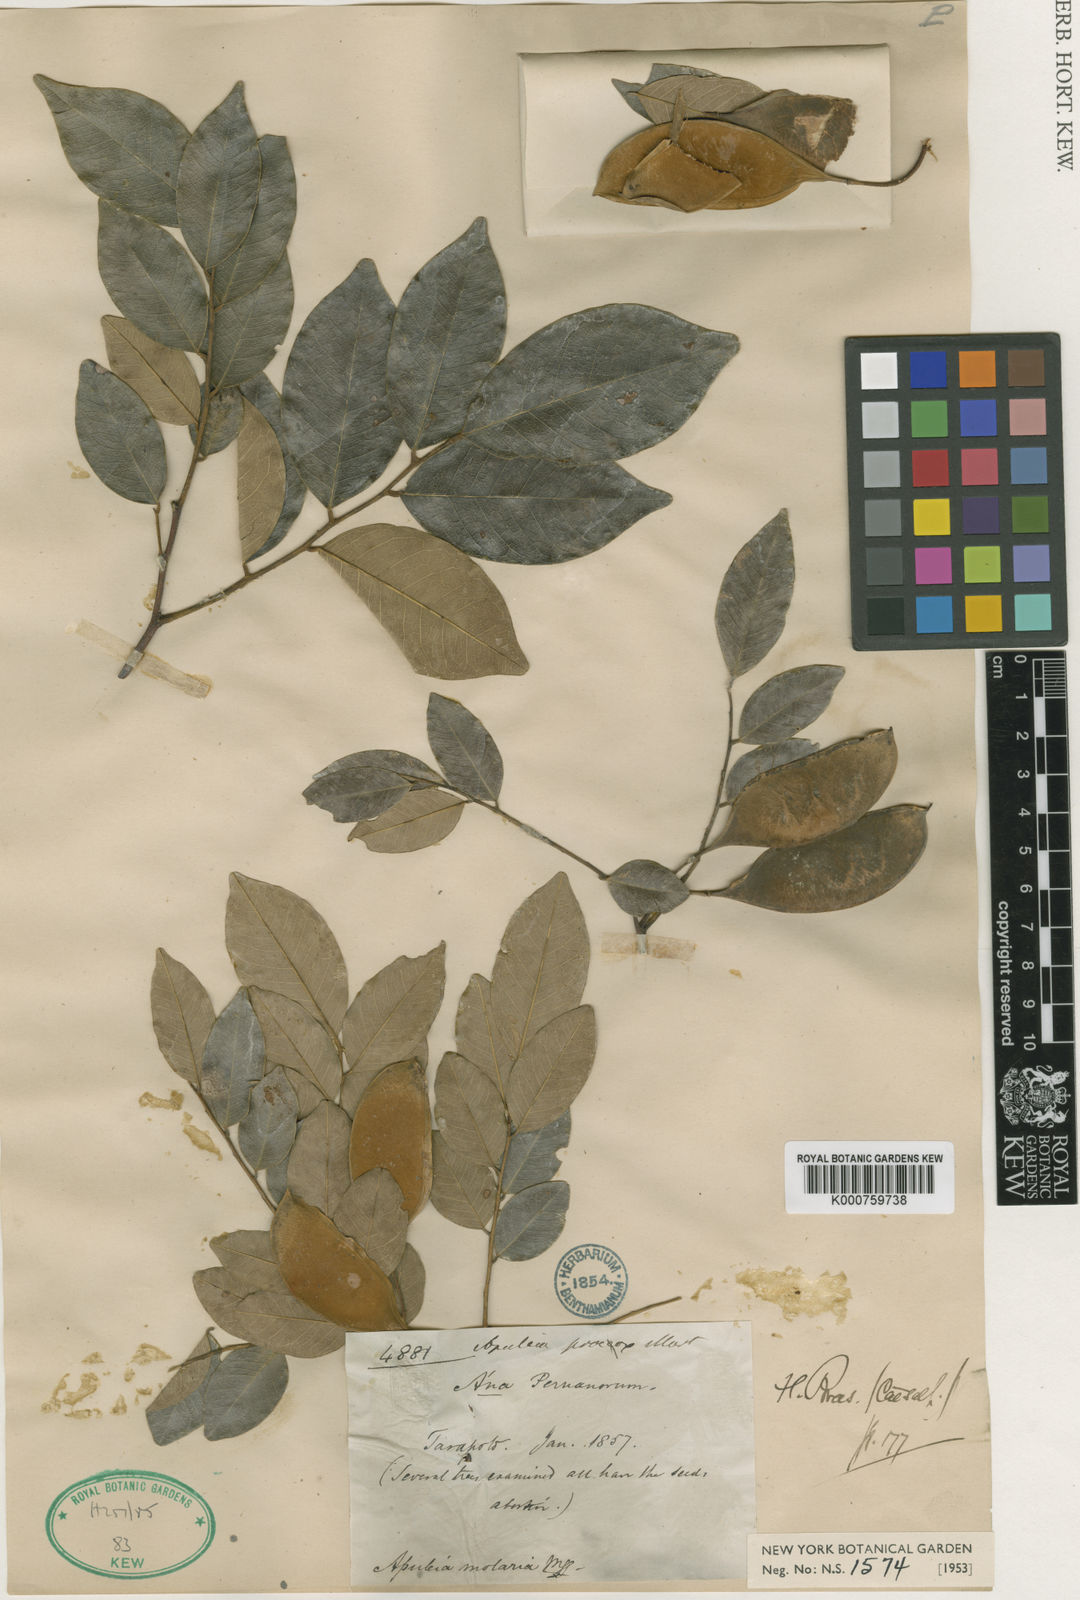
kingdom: Plantae
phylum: Tracheophyta
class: Magnoliopsida
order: Fabales
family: Fabaceae
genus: Apuleia
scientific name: Apuleia
